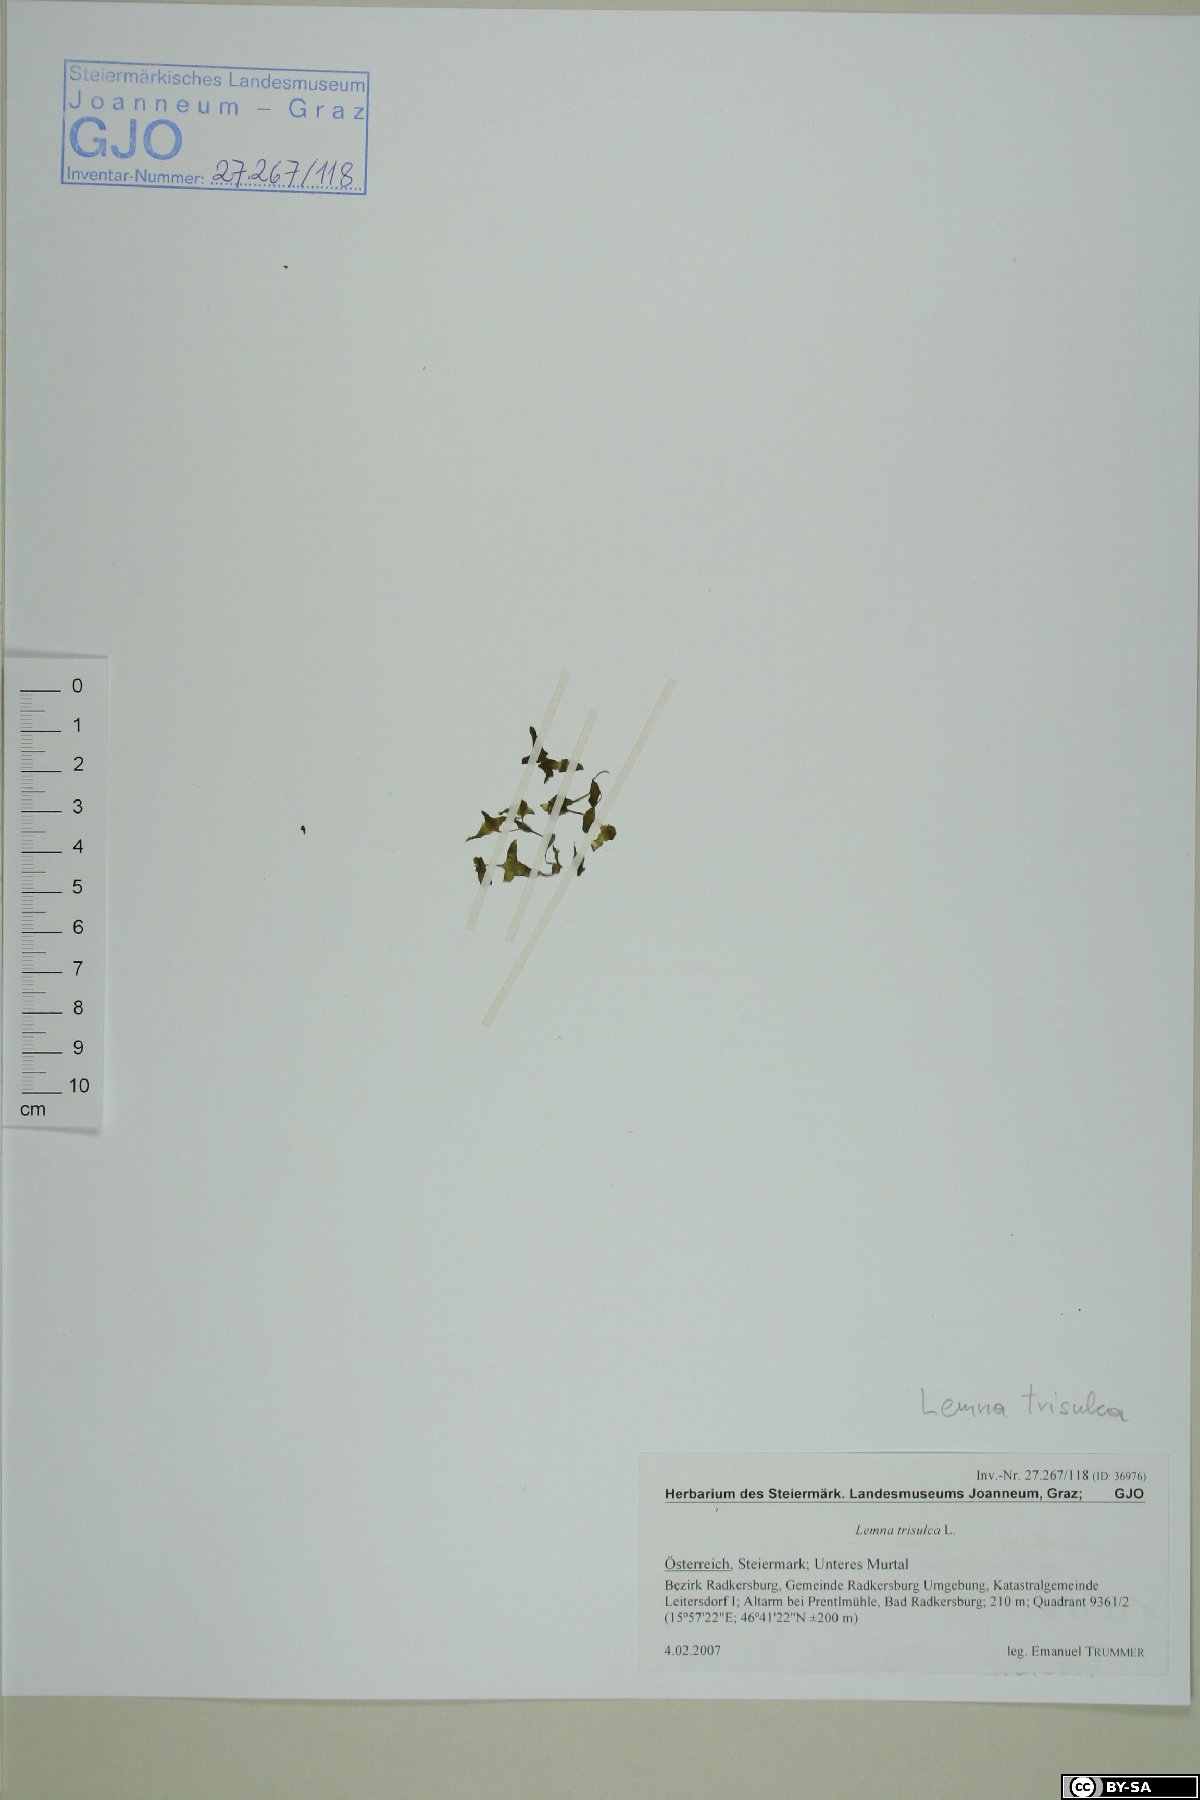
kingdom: Plantae
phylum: Tracheophyta
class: Liliopsida
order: Alismatales
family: Araceae
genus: Lemna
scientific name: Lemna trisulca
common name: Ivy-leaved duckweed
